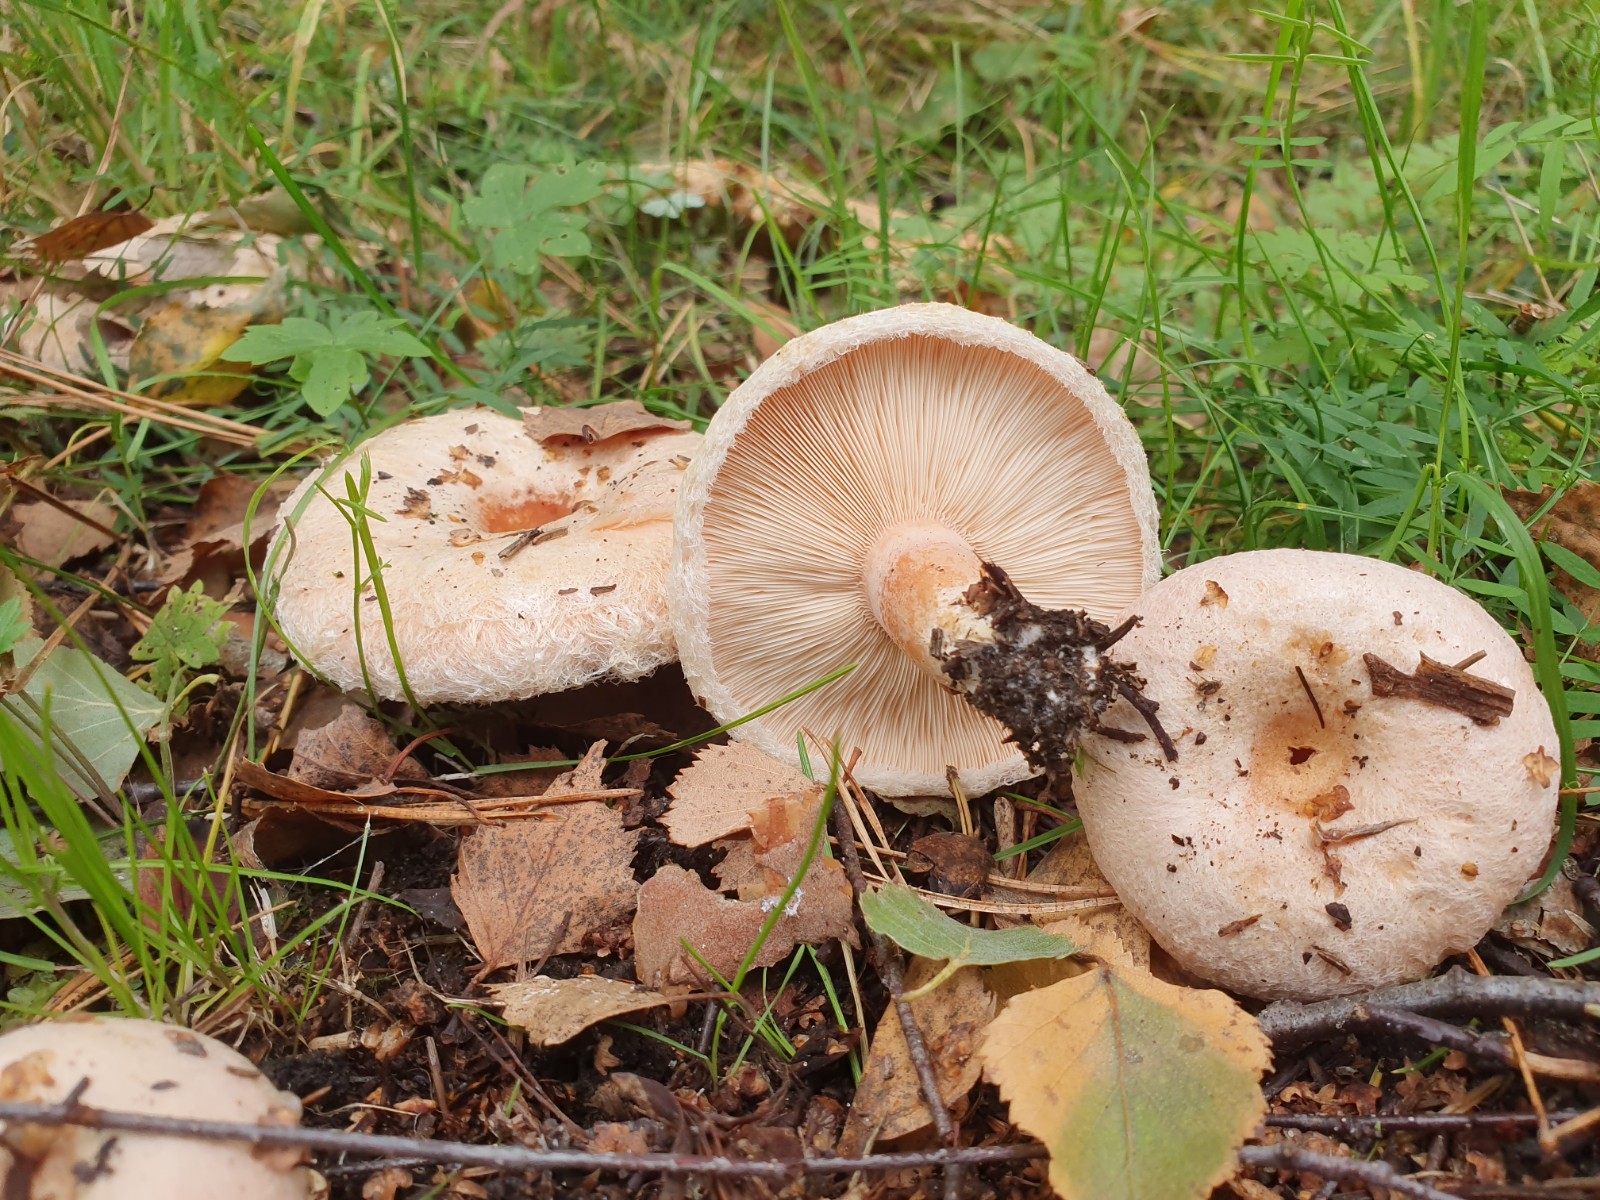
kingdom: Fungi
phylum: Basidiomycota
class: Agaricomycetes
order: Russulales
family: Russulaceae
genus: Lactarius
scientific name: Lactarius pubescens
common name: dunet mælkehat
